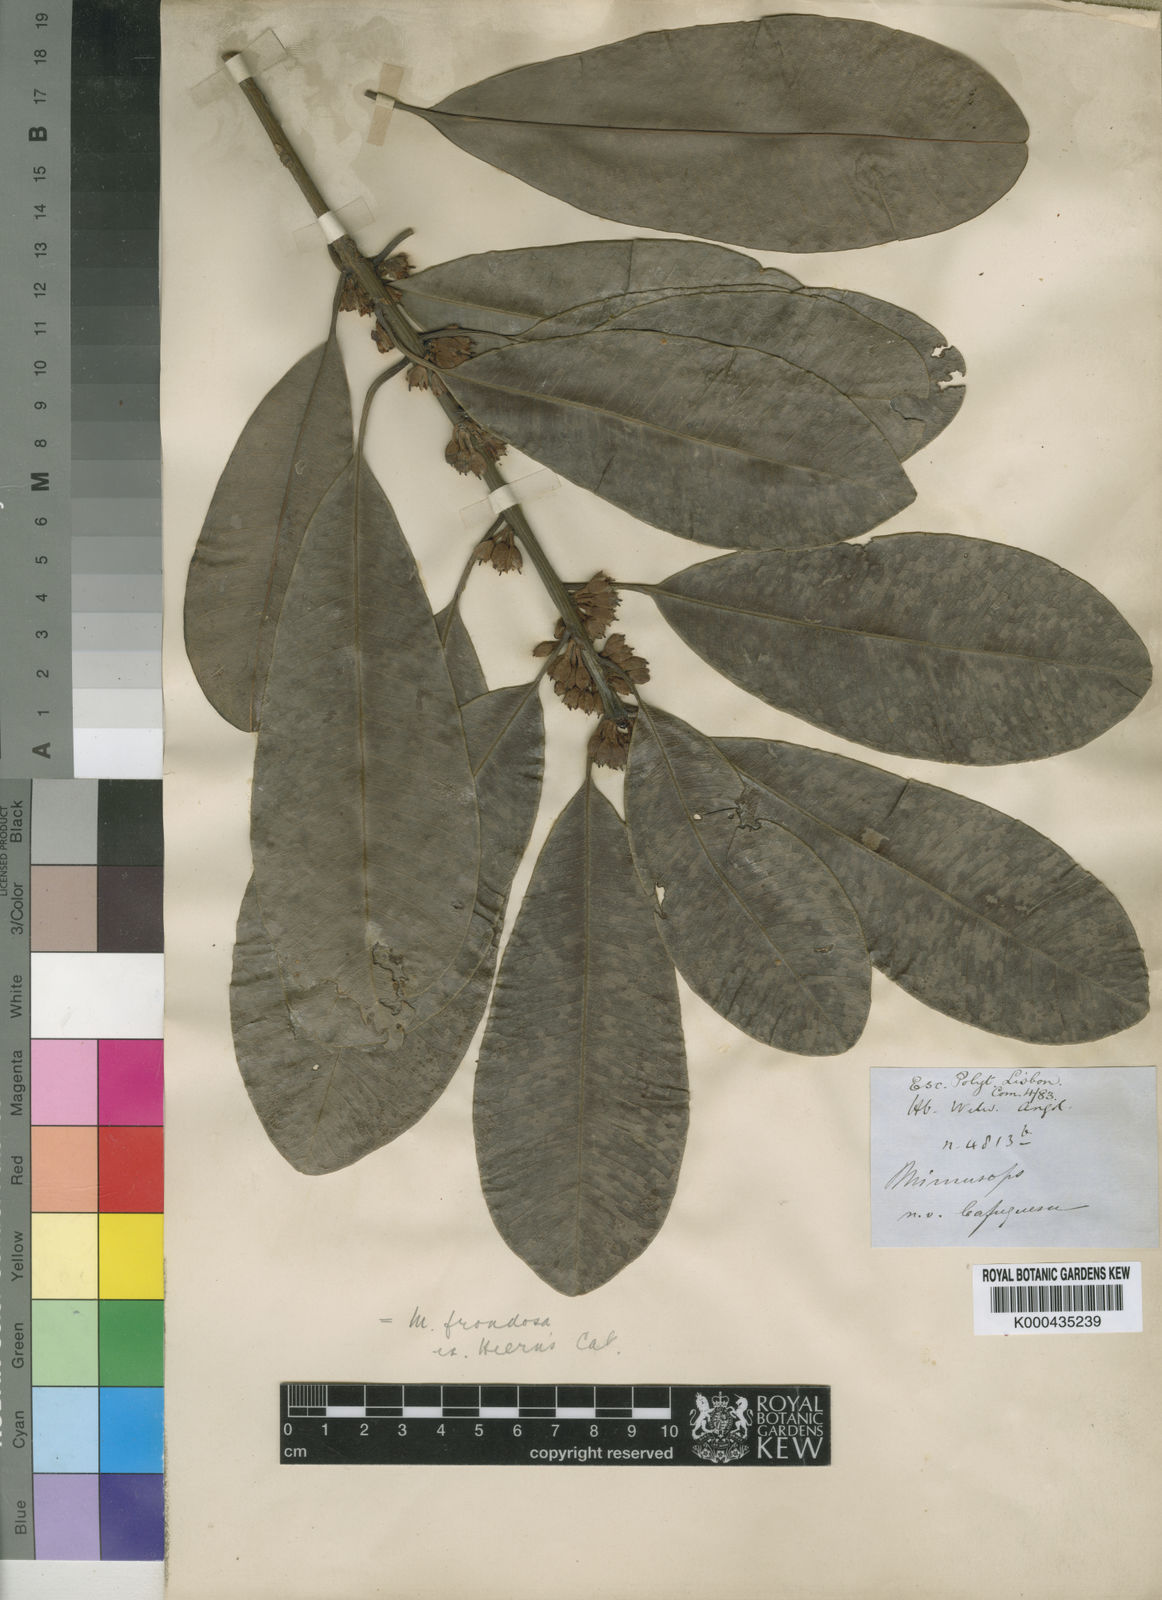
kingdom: Plantae
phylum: Tracheophyta
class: Magnoliopsida
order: Ericales
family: Sapotaceae
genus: Manilkara
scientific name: Manilkara frondosa
